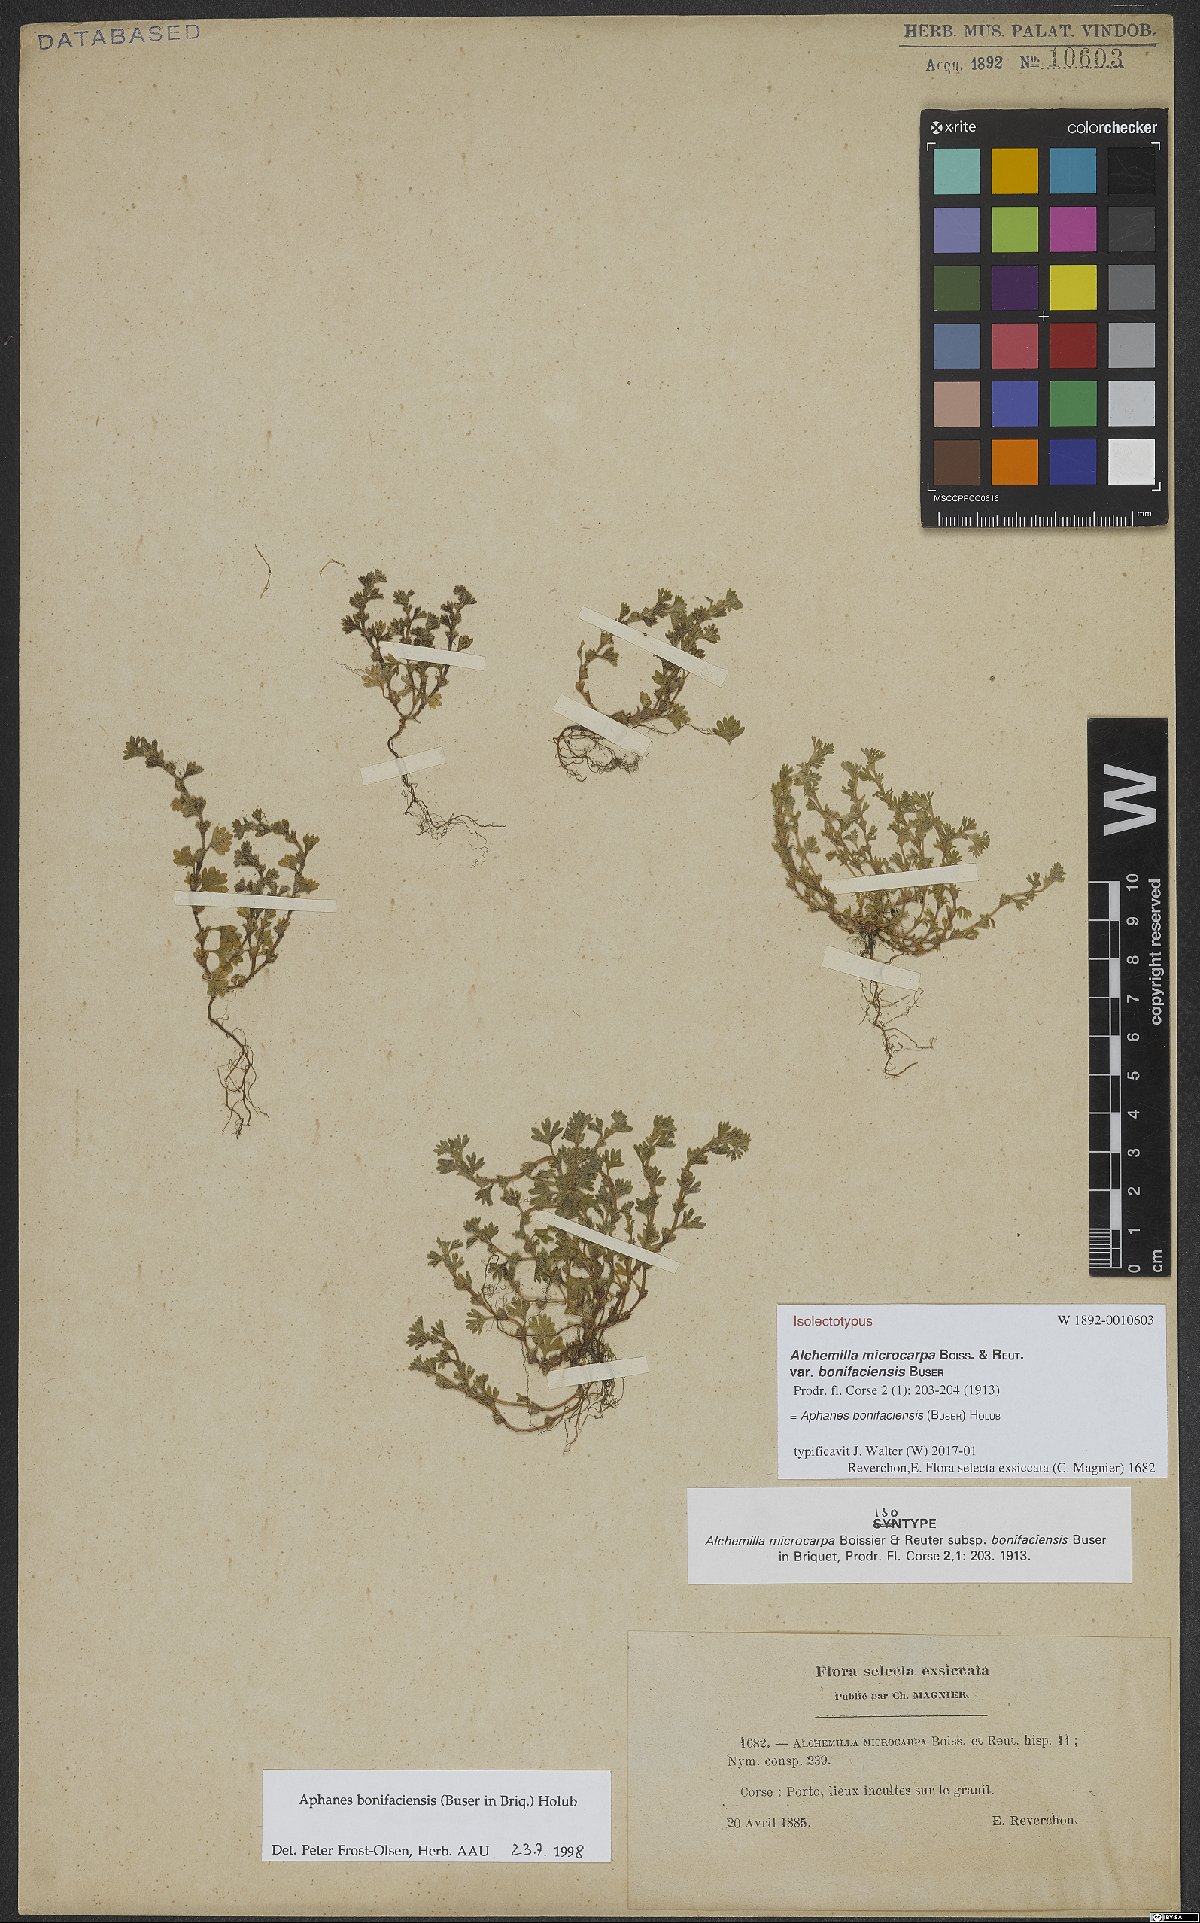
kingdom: Plantae
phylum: Tracheophyta
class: Magnoliopsida
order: Rosales
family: Rosaceae
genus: Aphanes
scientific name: Aphanes minutiflora
